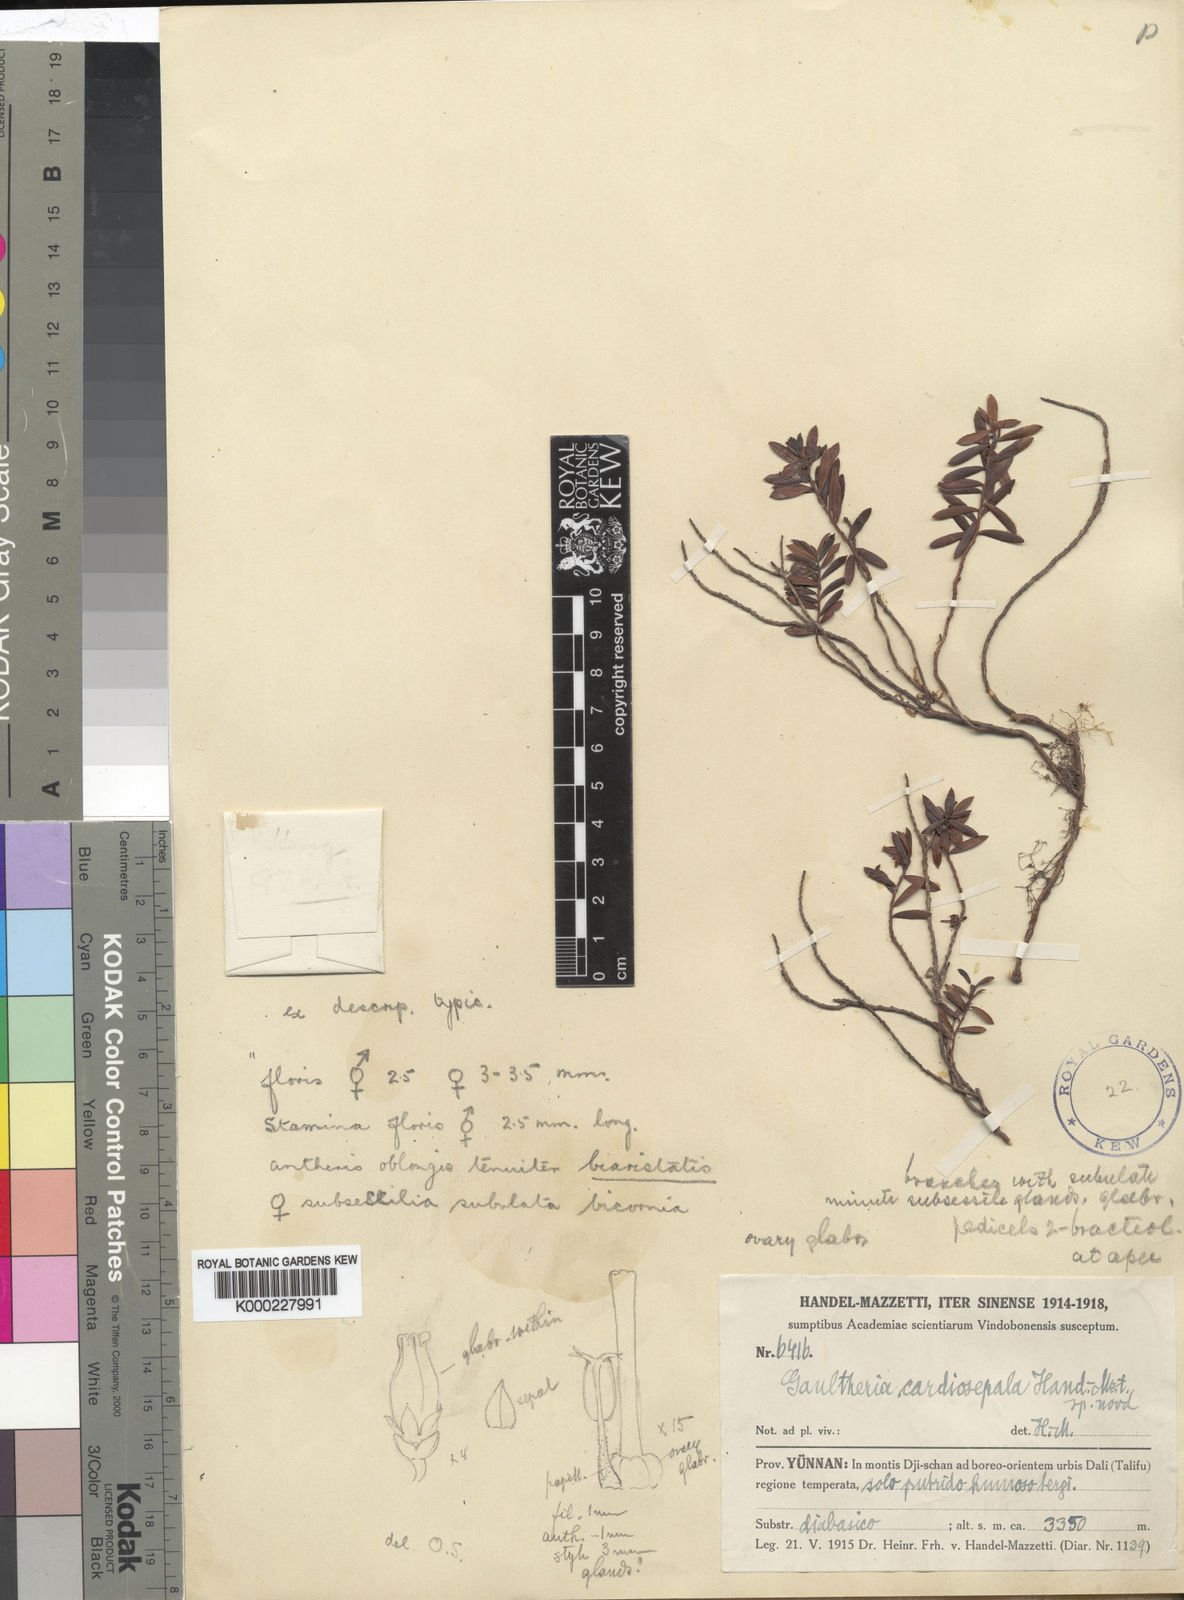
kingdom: Plantae
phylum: Tracheophyta
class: Magnoliopsida
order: Ericales
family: Ericaceae
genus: Gaultheria
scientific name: Gaultheria cardiosepala
